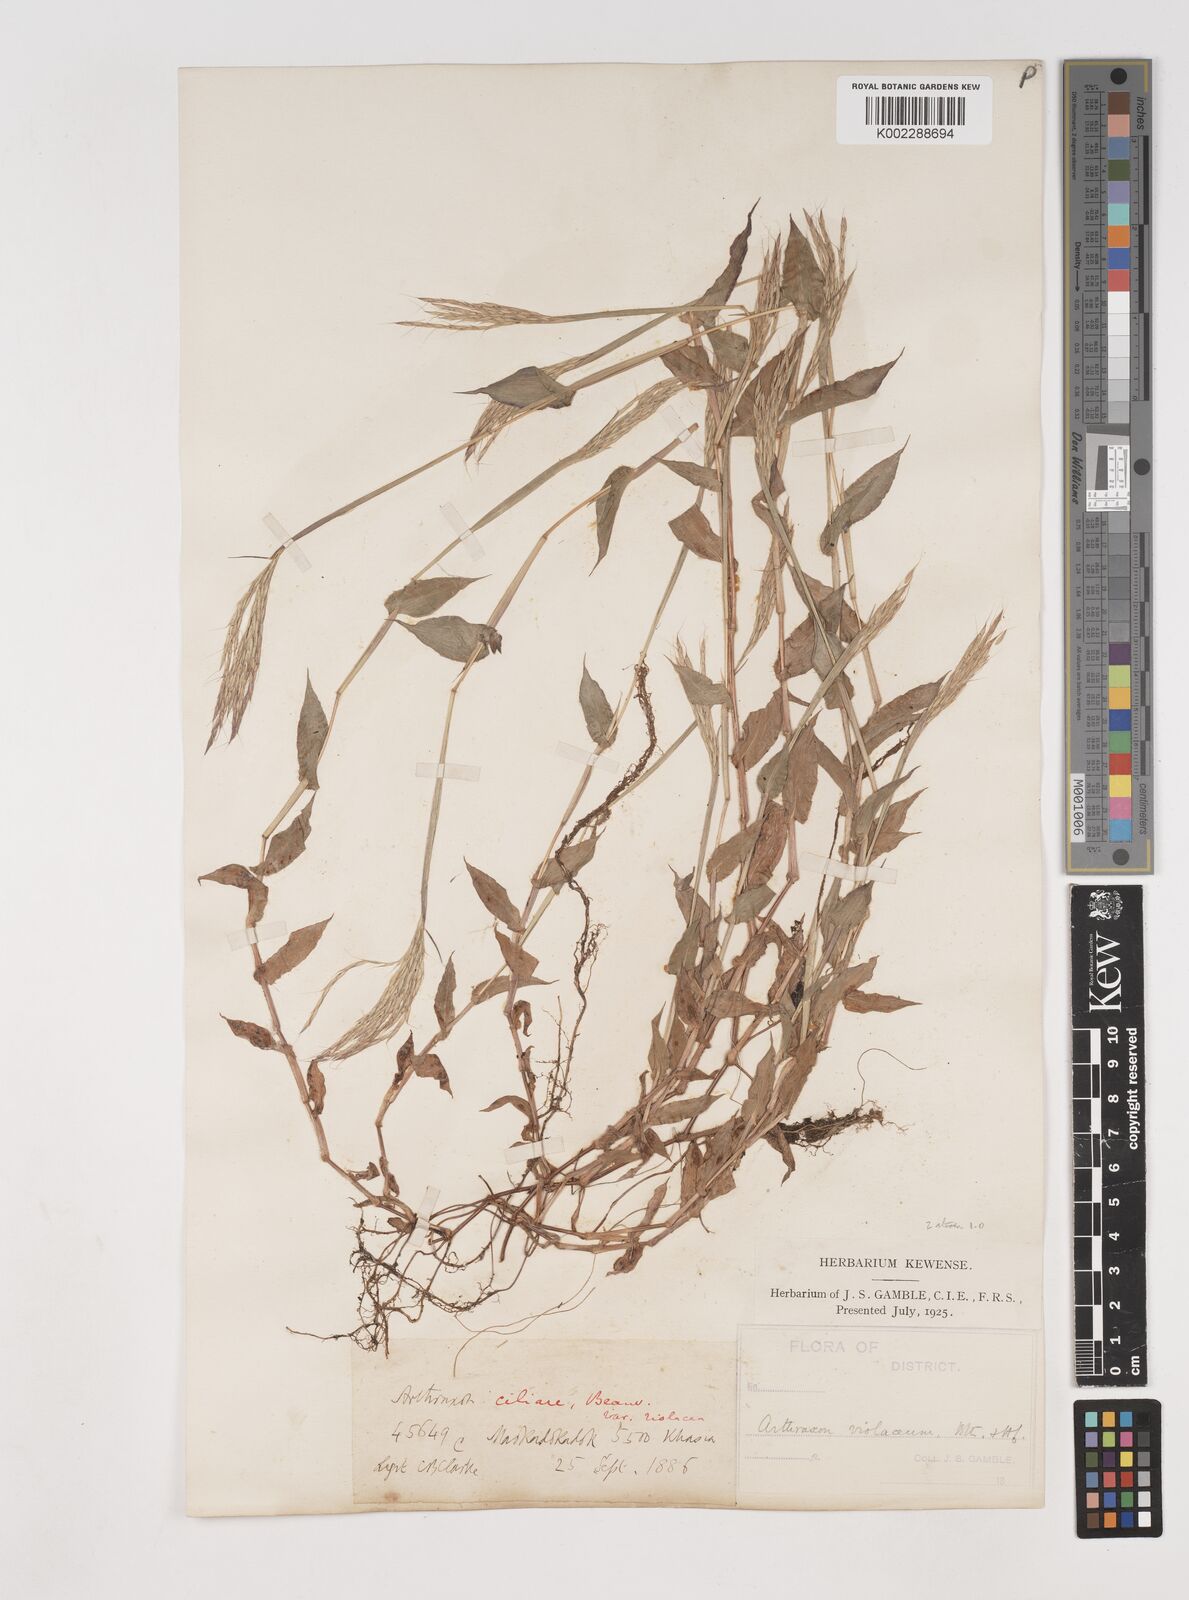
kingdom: Plantae
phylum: Tracheophyta
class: Liliopsida
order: Poales
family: Poaceae
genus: Arthraxon
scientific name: Arthraxon hispidus
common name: Small carpgrass
